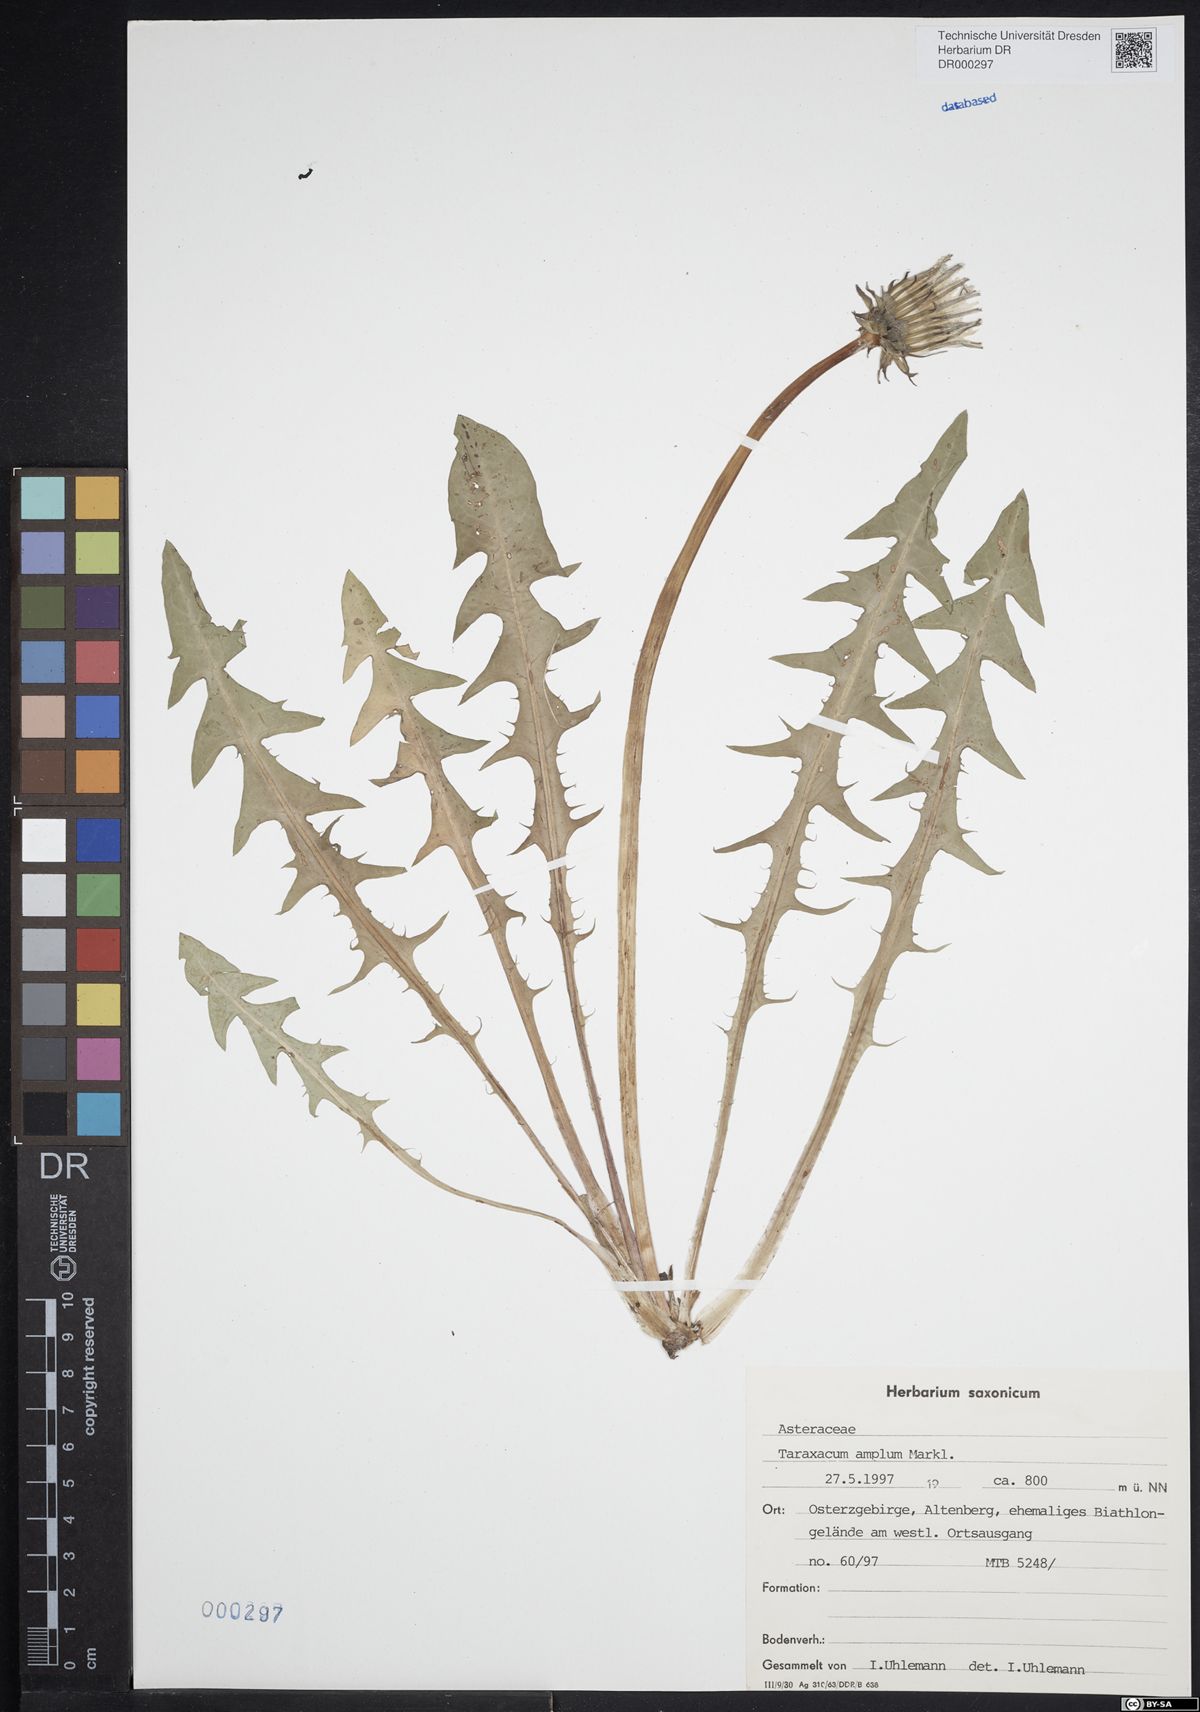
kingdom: Plantae
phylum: Tracheophyta
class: Magnoliopsida
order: Asterales
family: Asteraceae
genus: Taraxacum
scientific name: Taraxacum amplum
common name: Toothed dandelion
